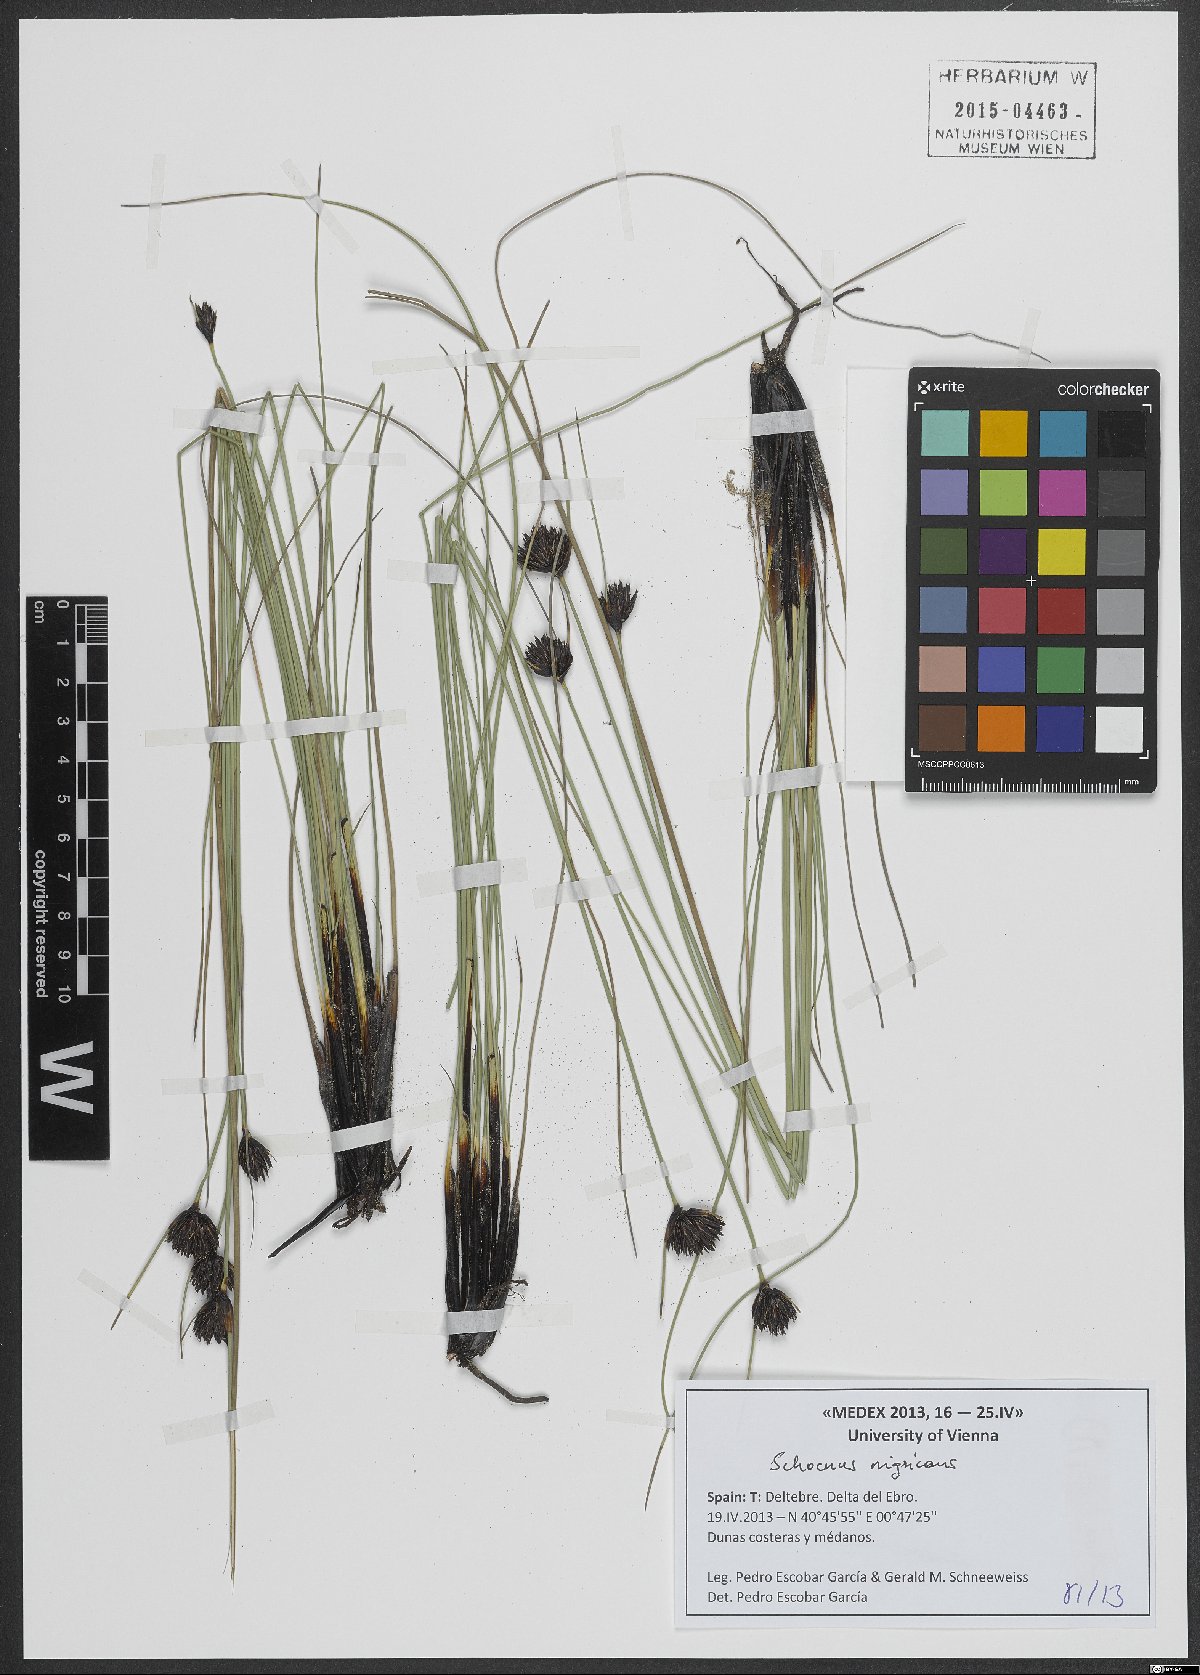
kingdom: Plantae
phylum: Tracheophyta
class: Liliopsida
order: Poales
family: Cyperaceae
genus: Schoenus
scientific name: Schoenus nigricans
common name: Black bog-rush
